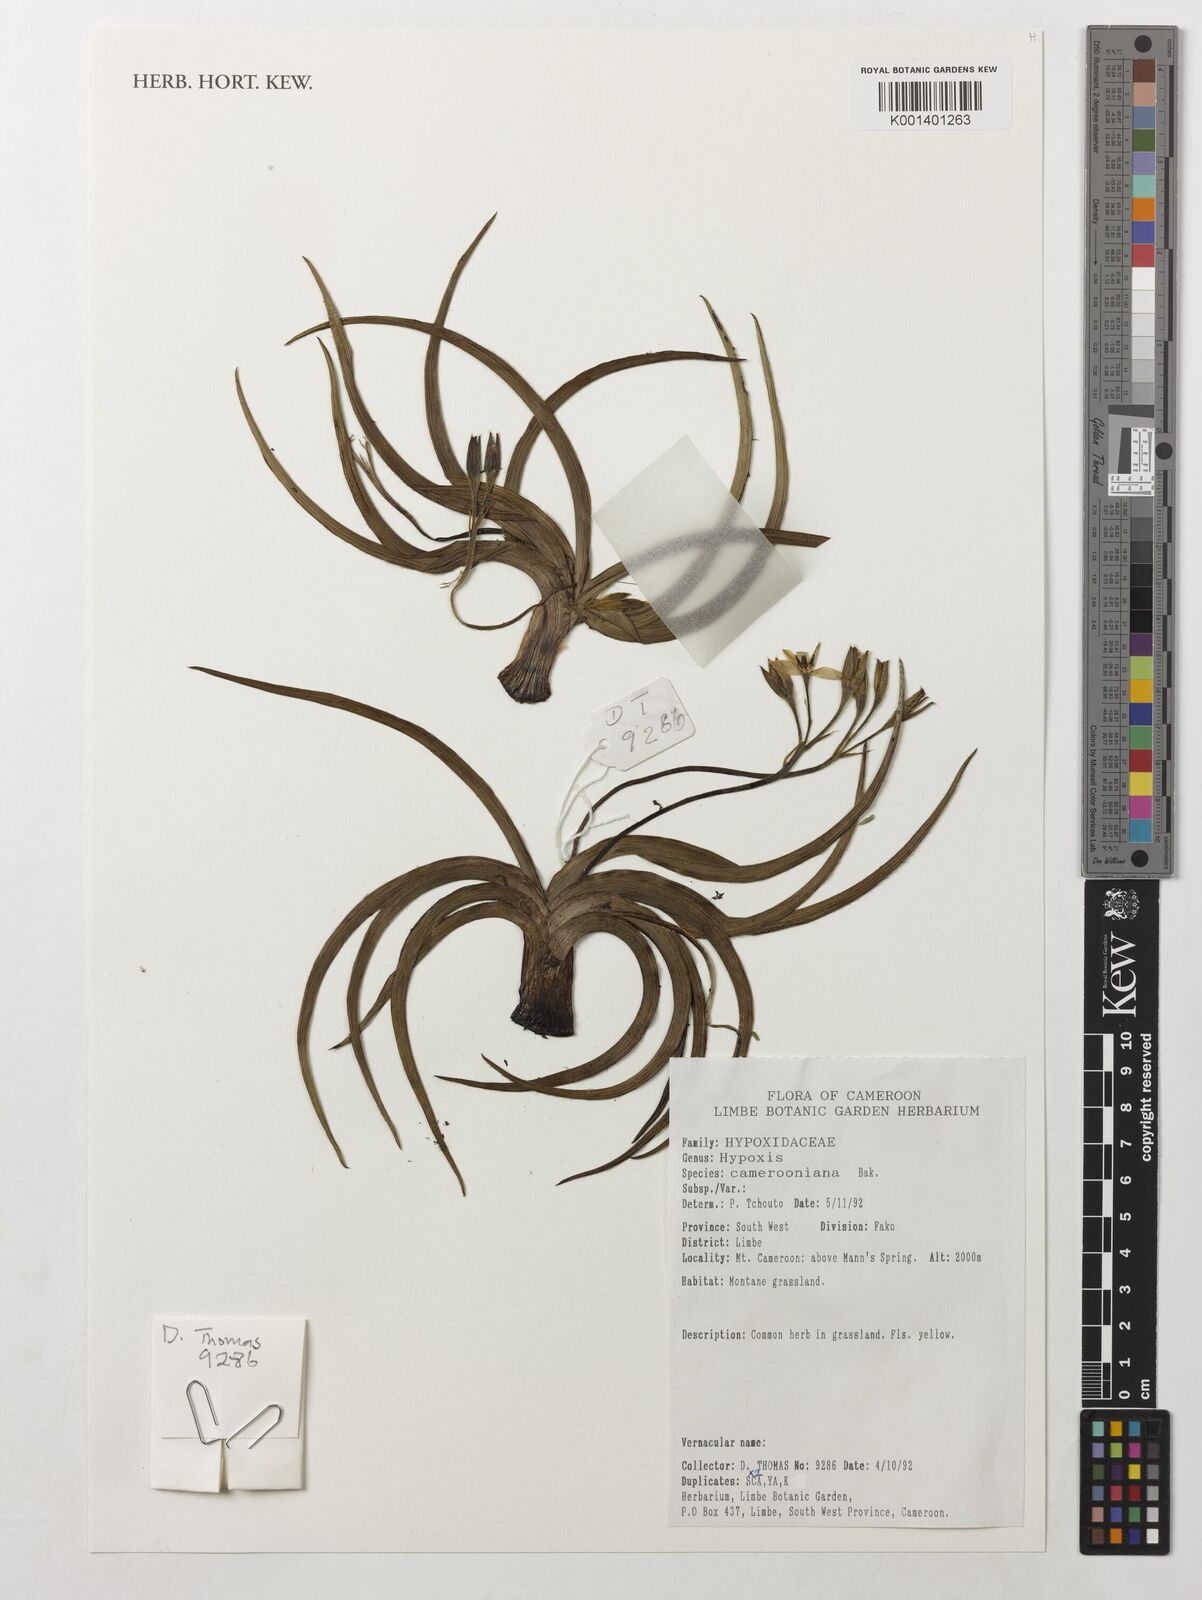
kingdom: Plantae
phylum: Tracheophyta
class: Liliopsida
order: Asparagales
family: Hypoxidaceae
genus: Hypoxis
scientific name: Hypoxis camerooniana
